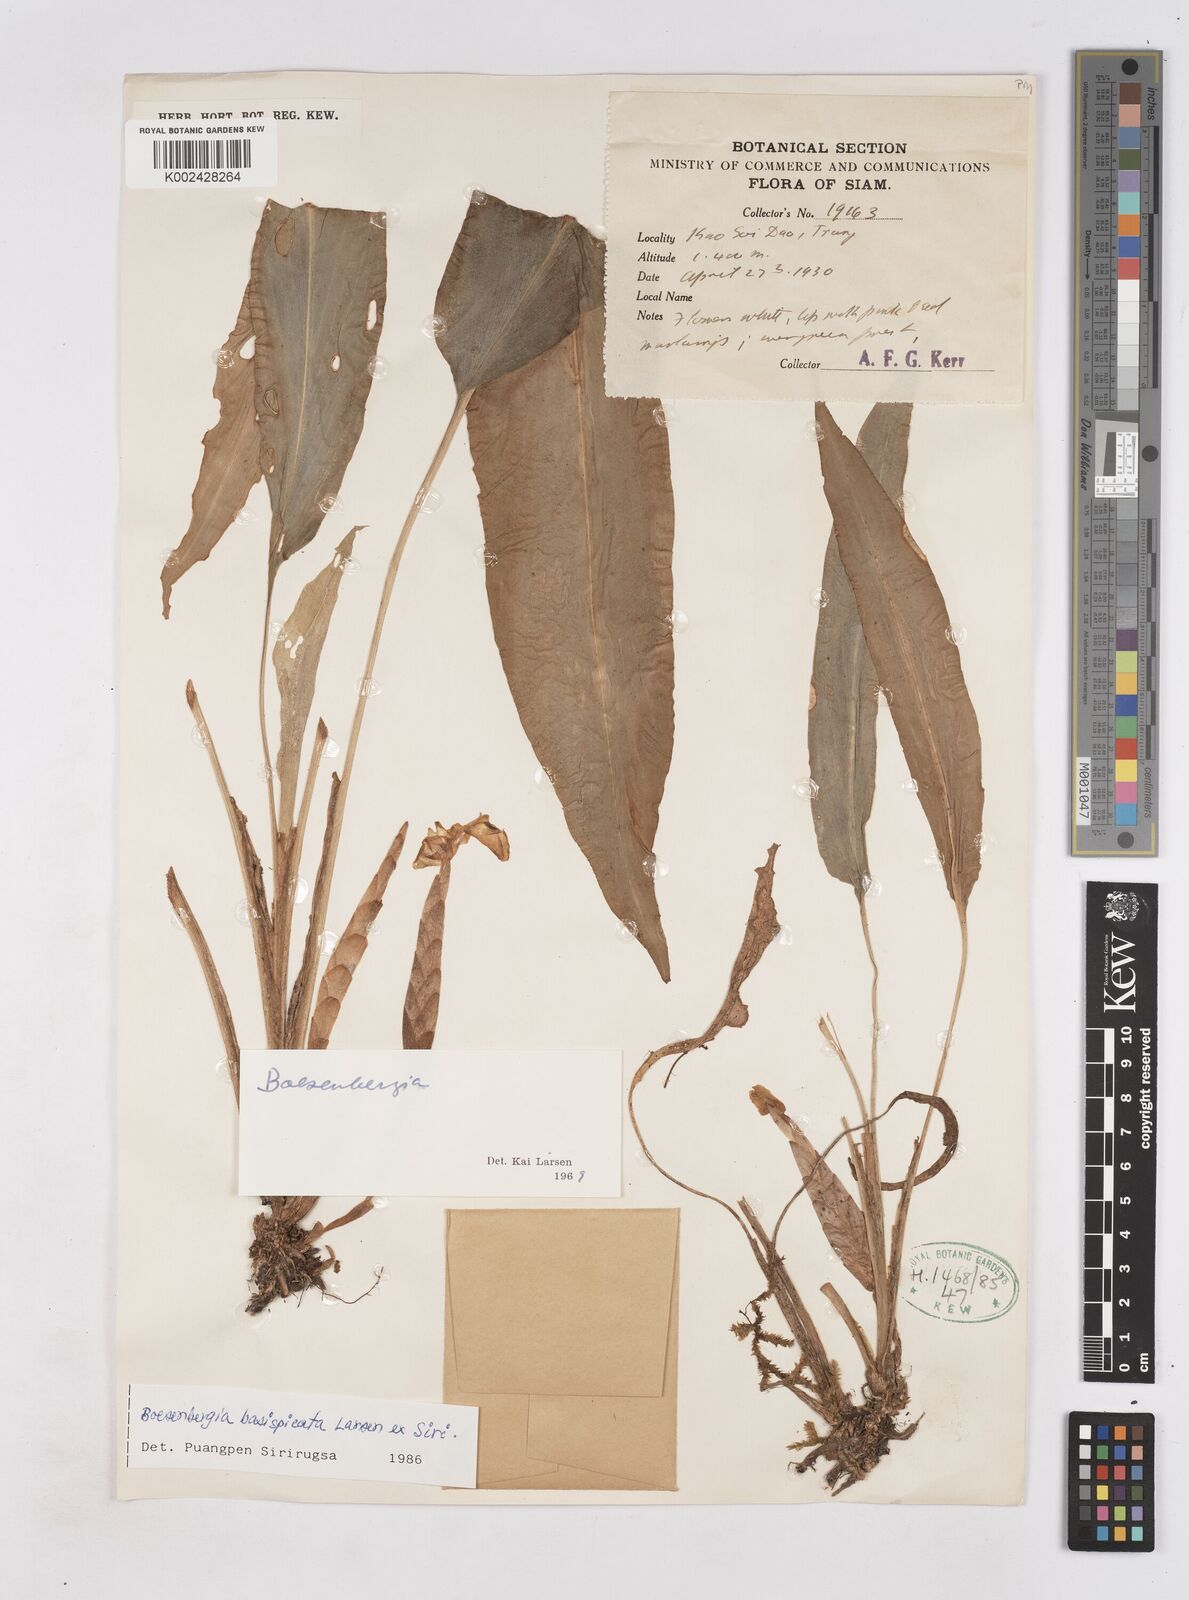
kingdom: Plantae
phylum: Tracheophyta
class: Liliopsida
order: Zingiberales
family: Zingiberaceae
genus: Boesenbergia
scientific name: Boesenbergia basispicata
